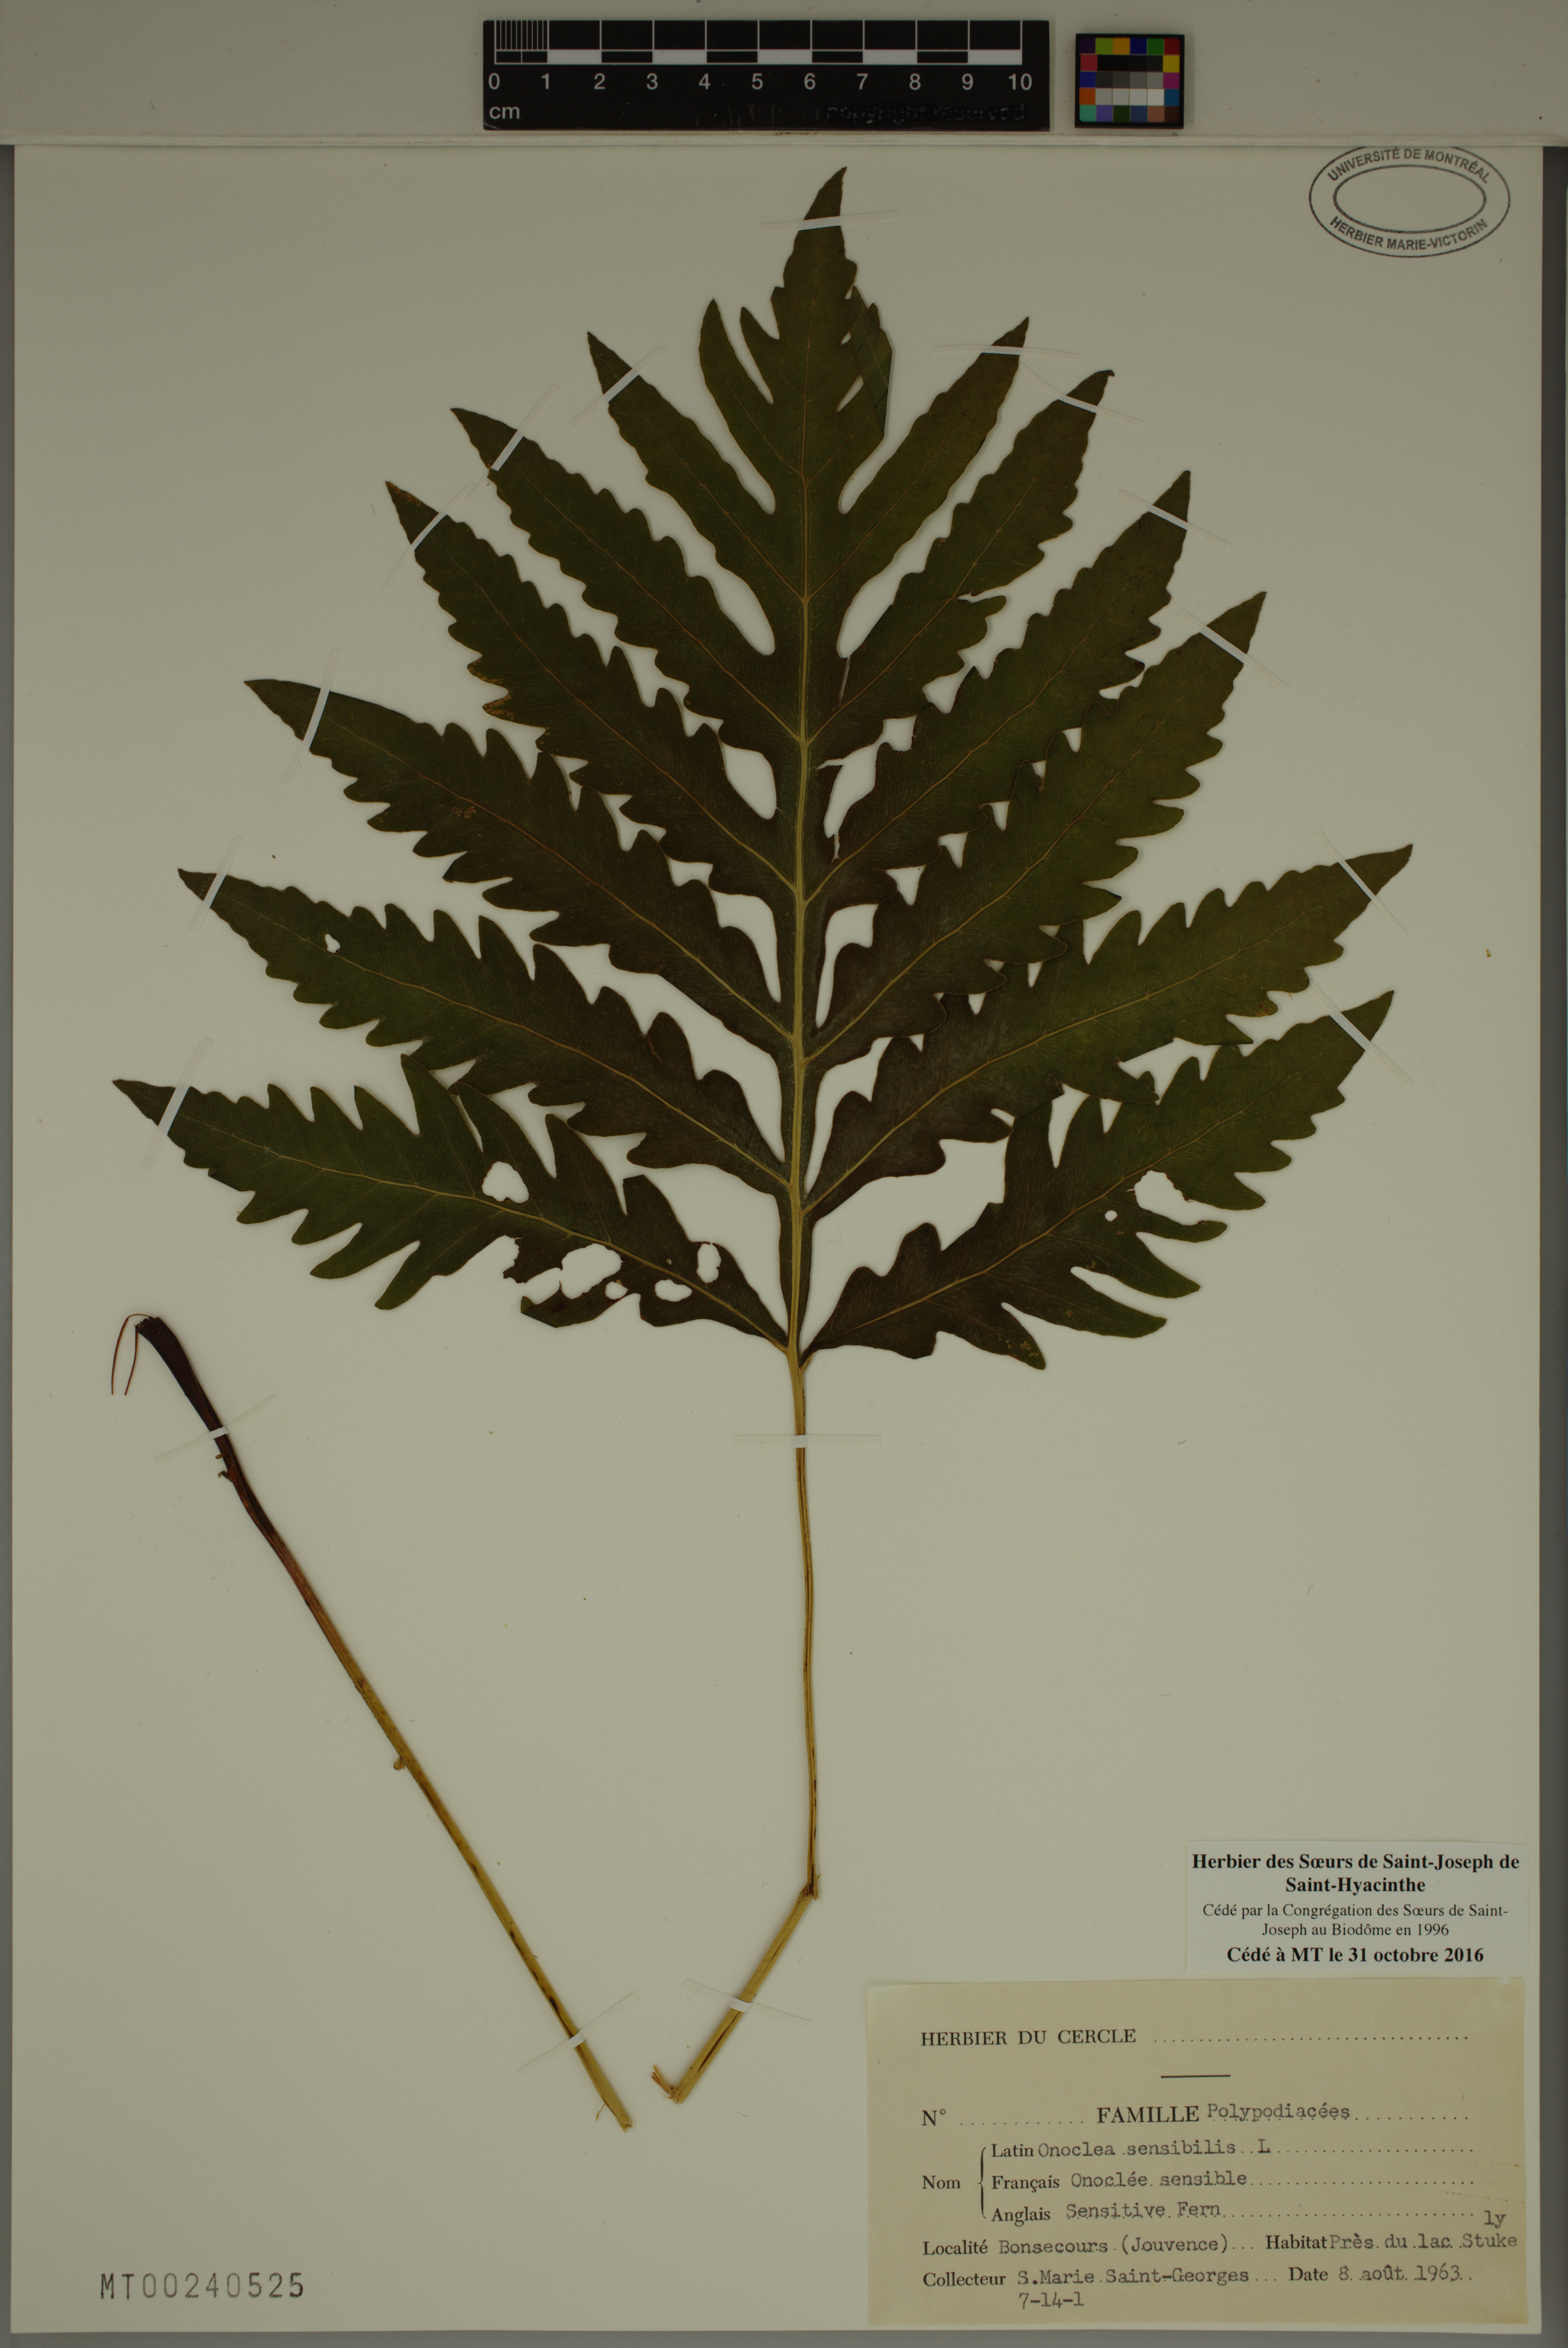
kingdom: Plantae
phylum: Tracheophyta
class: Polypodiopsida
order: Polypodiales
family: Onocleaceae
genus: Onoclea
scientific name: Onoclea sensibilis
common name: Sensitive fern
